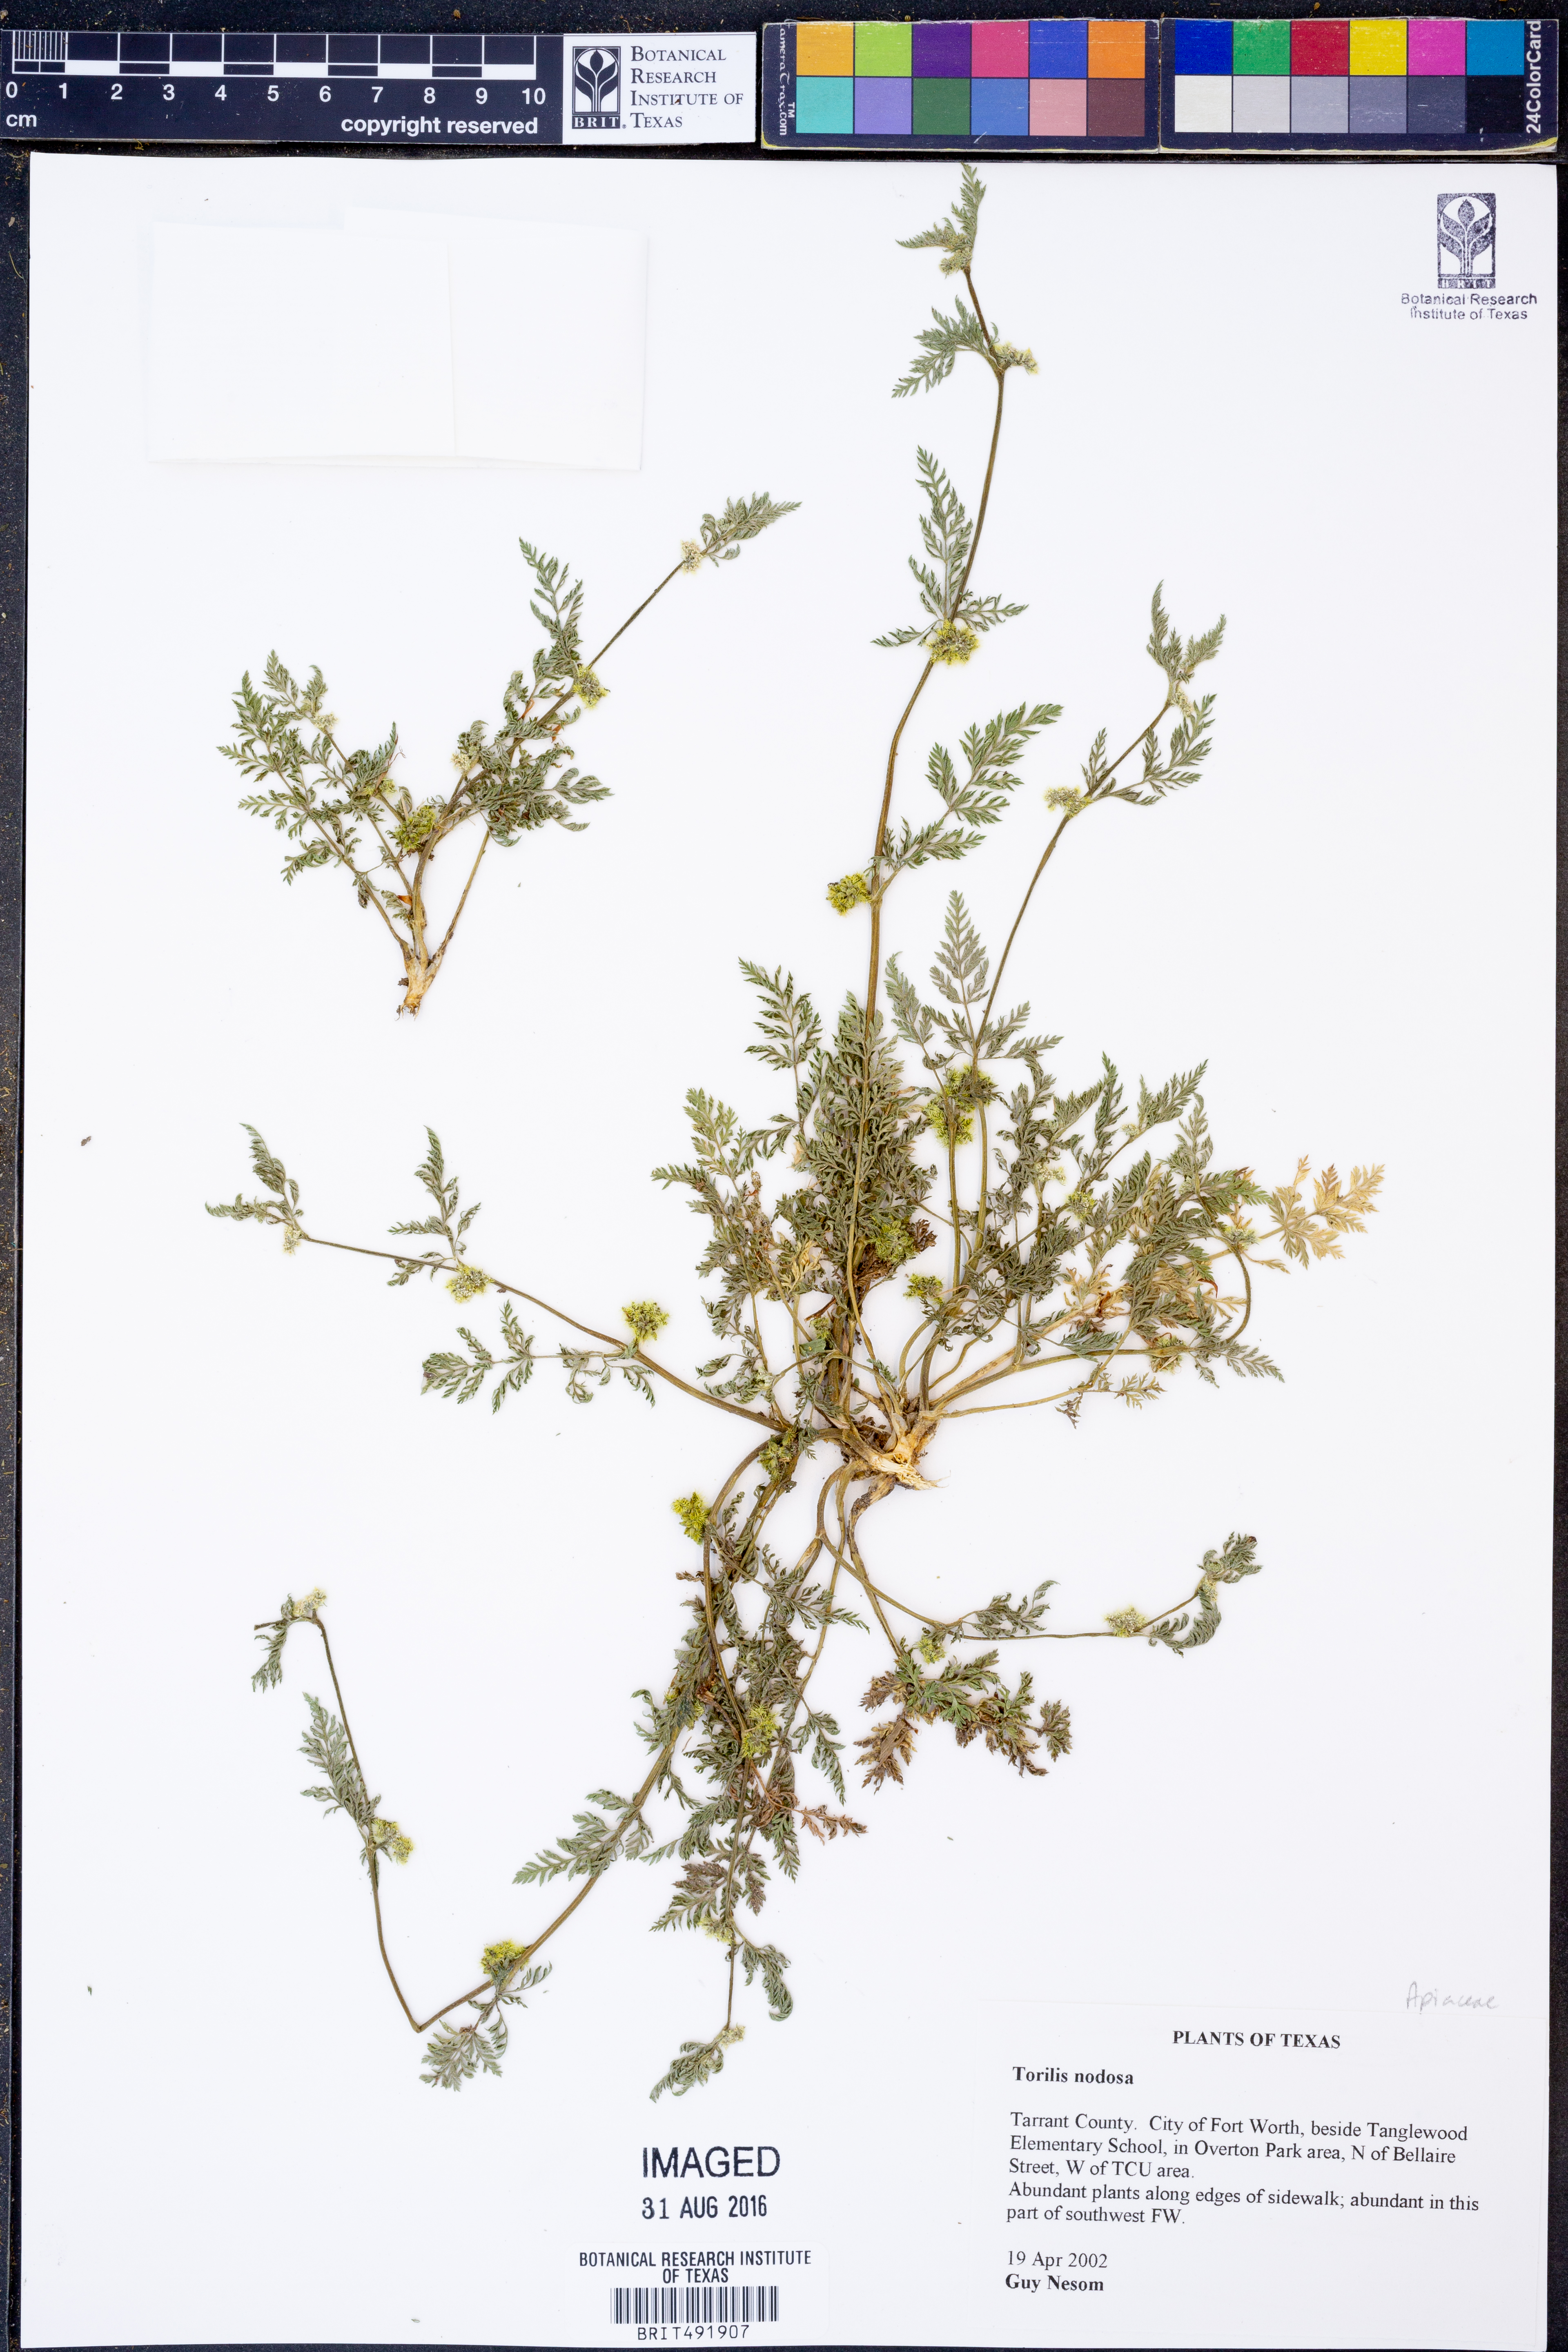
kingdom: Plantae
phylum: Tracheophyta
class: Magnoliopsida
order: Apiales
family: Apiaceae
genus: Torilis
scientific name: Torilis nodosa
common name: Knotted hedge-parsley
